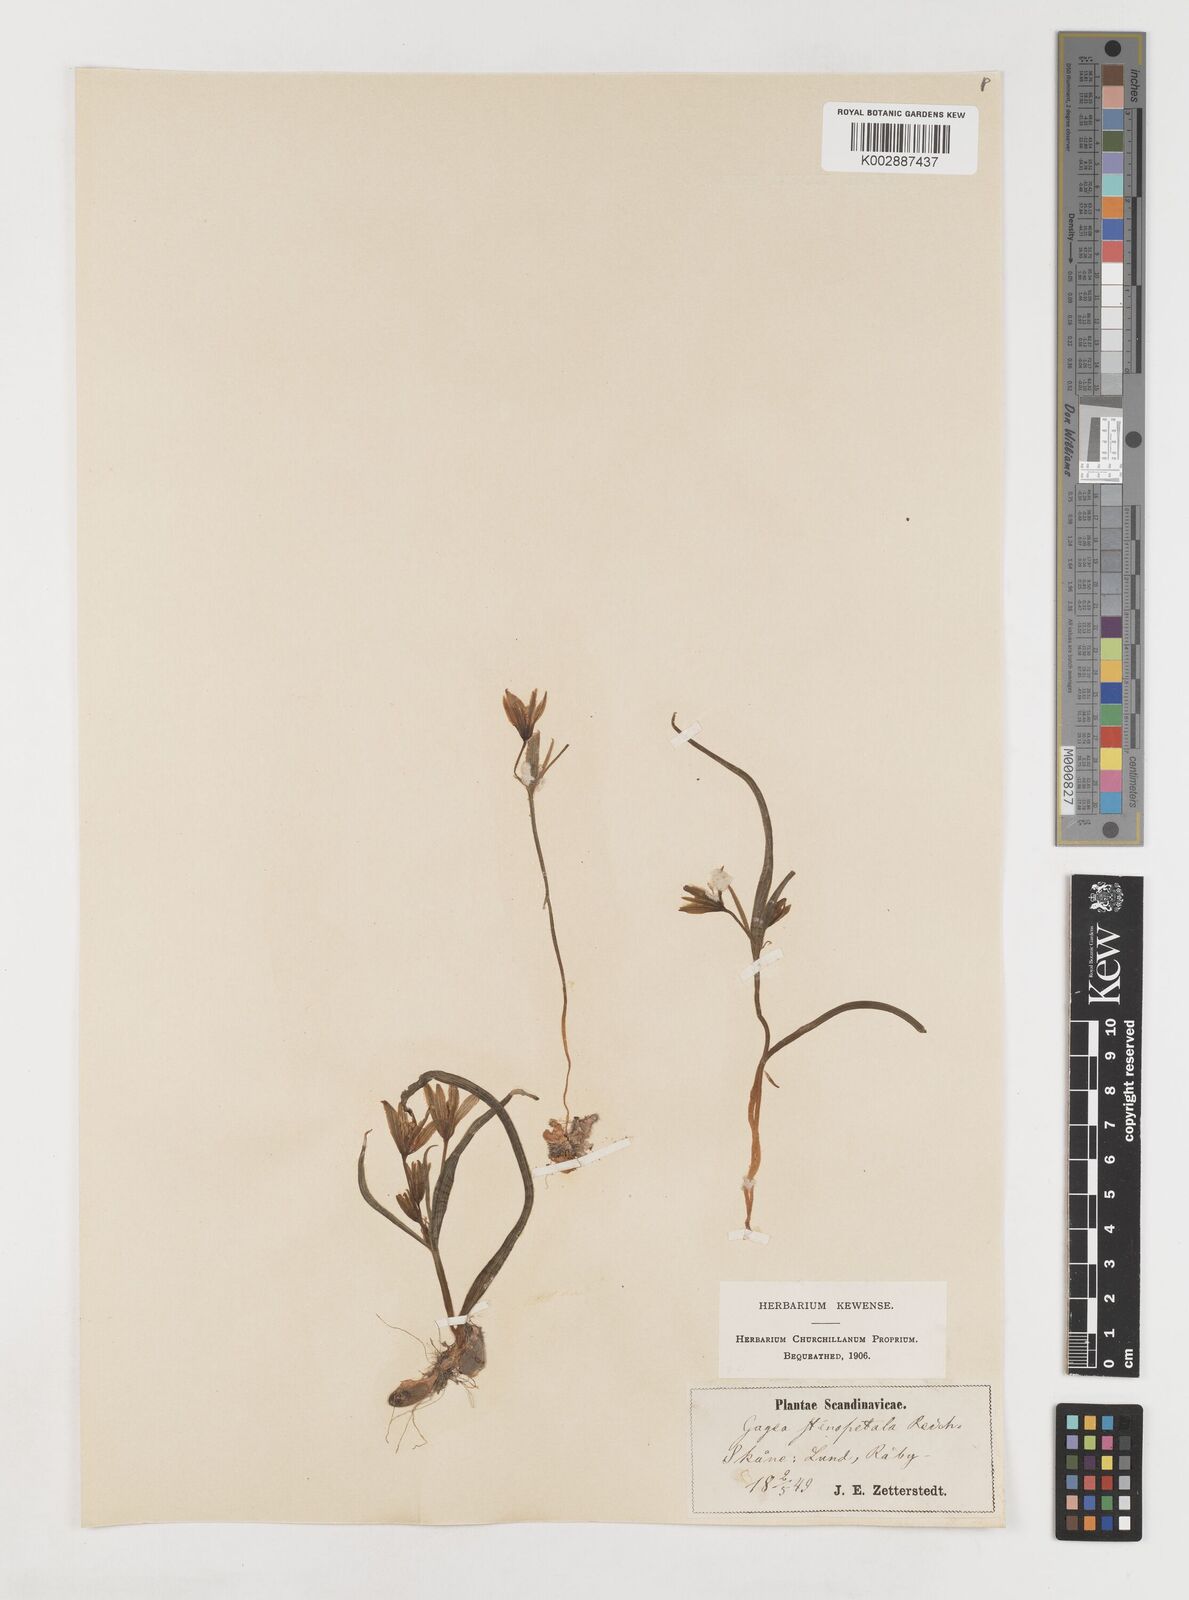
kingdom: Plantae
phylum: Tracheophyta
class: Liliopsida
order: Liliales
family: Liliaceae
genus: Gagea
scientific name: Gagea pratensis
